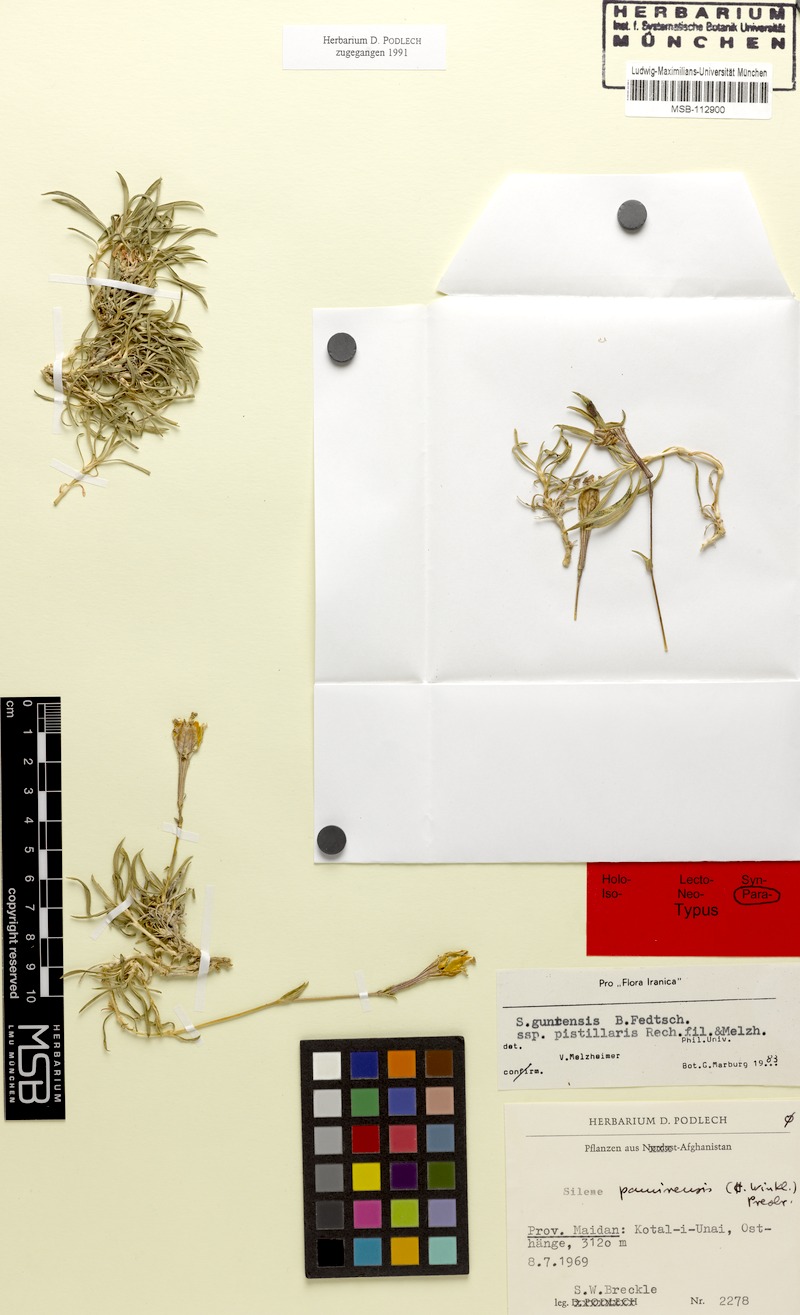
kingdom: Plantae
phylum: Tracheophyta
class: Magnoliopsida
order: Caryophyllales
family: Caryophyllaceae
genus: Silene
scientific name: Silene guntensis
